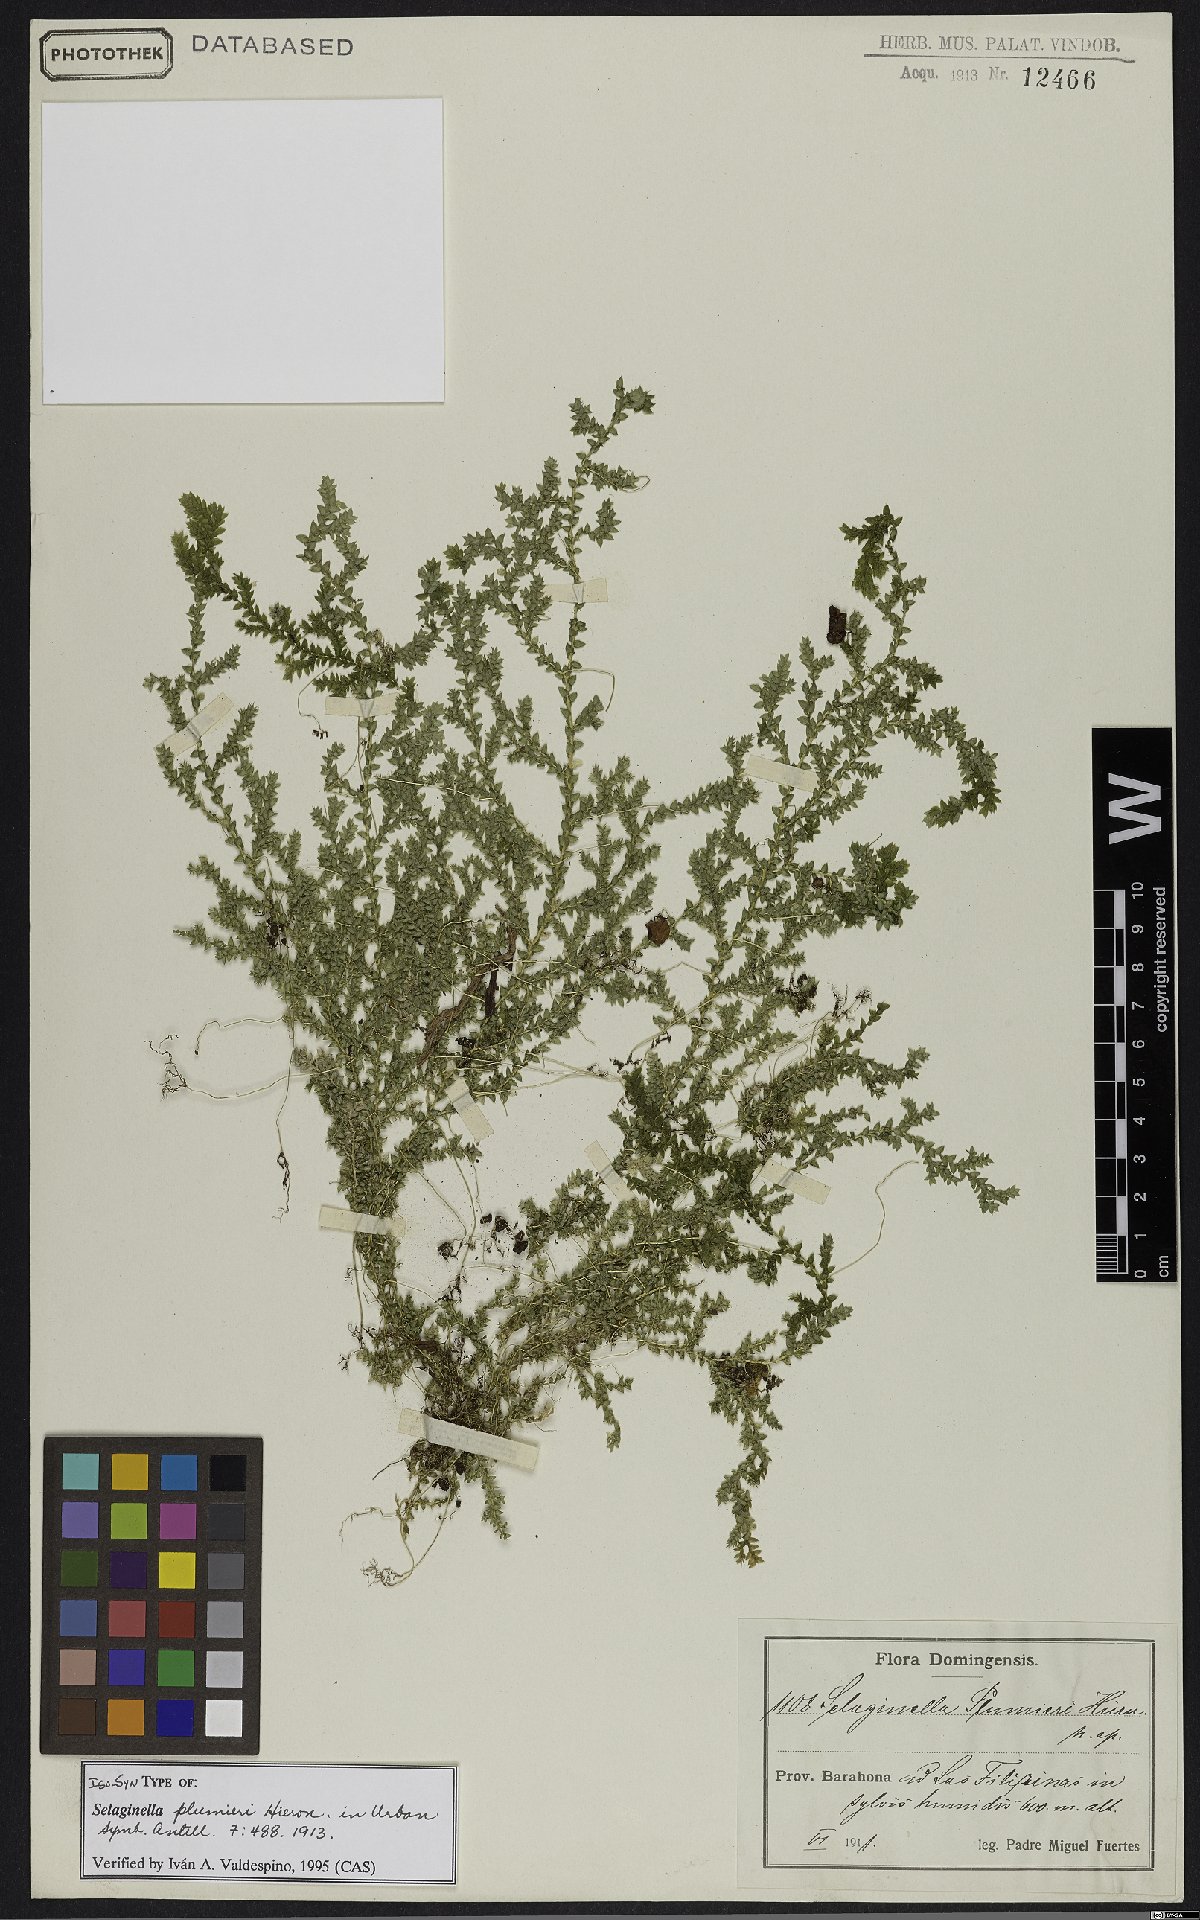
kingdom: Plantae
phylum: Tracheophyta
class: Lycopodiopsida
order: Selaginellales
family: Selaginellaceae
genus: Selaginella
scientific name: Selaginella plumieri
